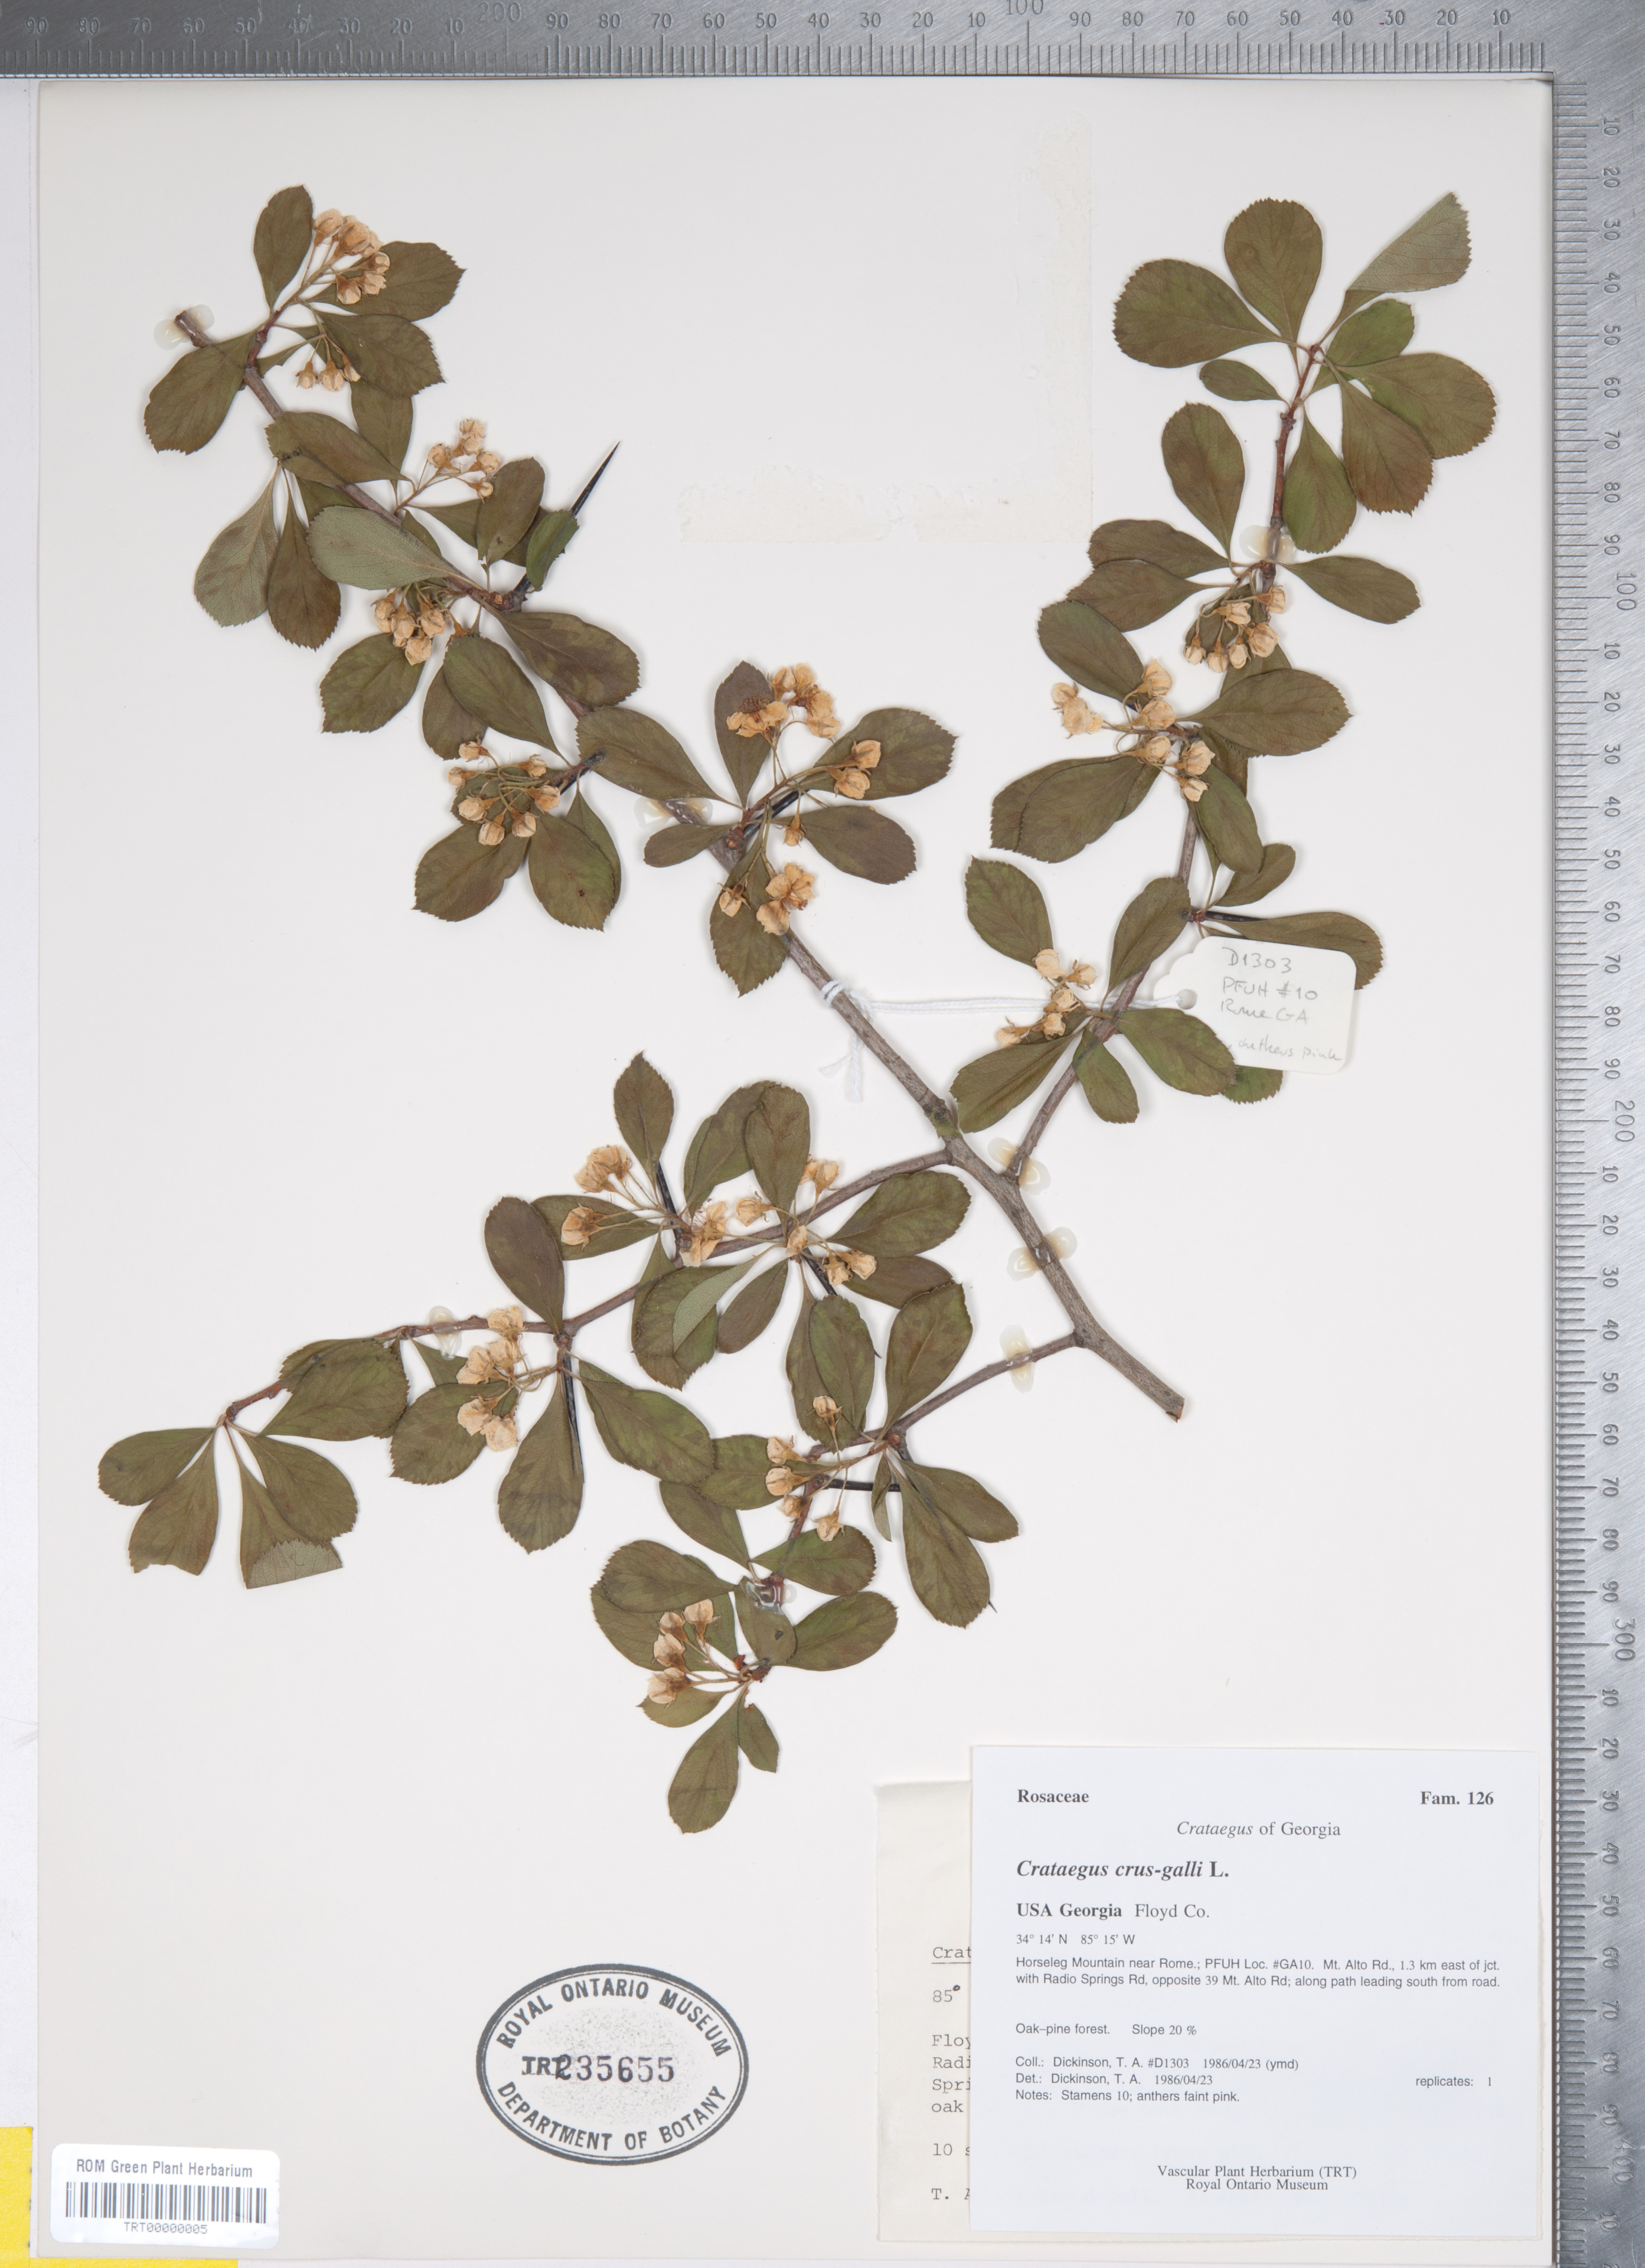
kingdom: Plantae
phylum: Tracheophyta
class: Magnoliopsida
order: Rosales
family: Rosaceae
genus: Crataegus
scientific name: Crataegus crus-galli
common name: Cockspurthorn
